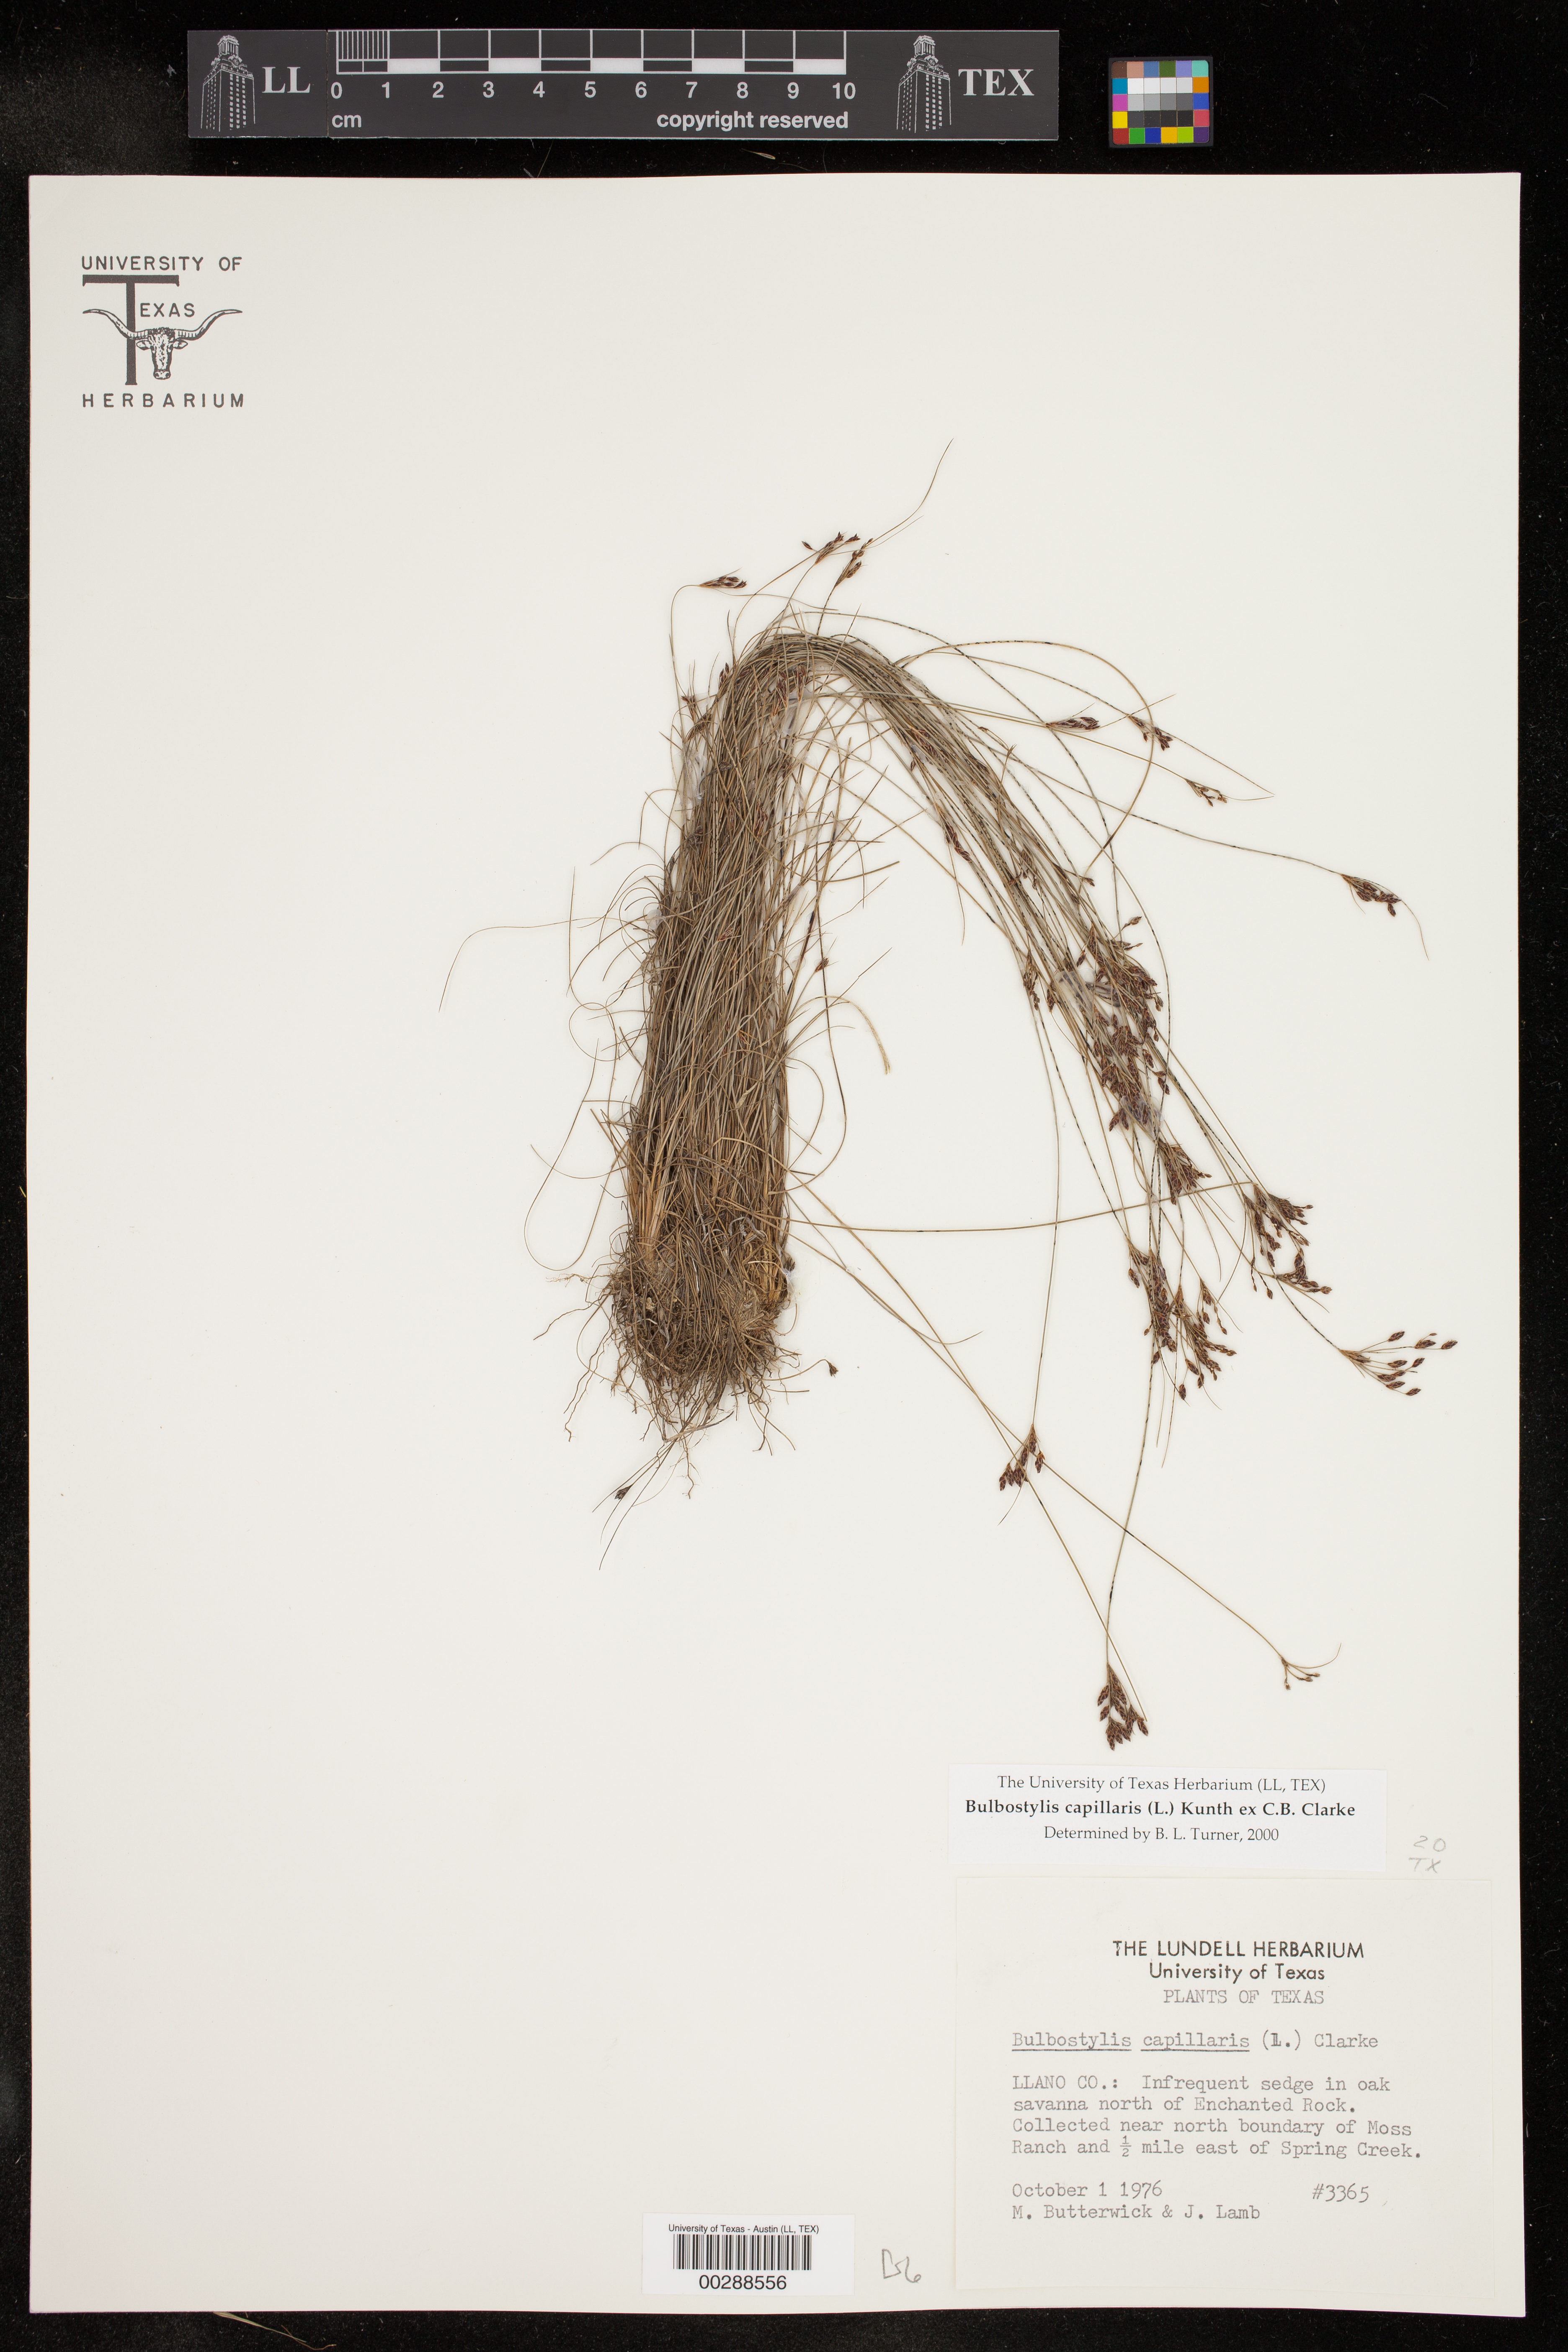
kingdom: Plantae
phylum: Tracheophyta
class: Liliopsida
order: Poales
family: Cyperaceae
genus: Bulbostylis
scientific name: Bulbostylis capillaris
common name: Densetuft hairsedge
